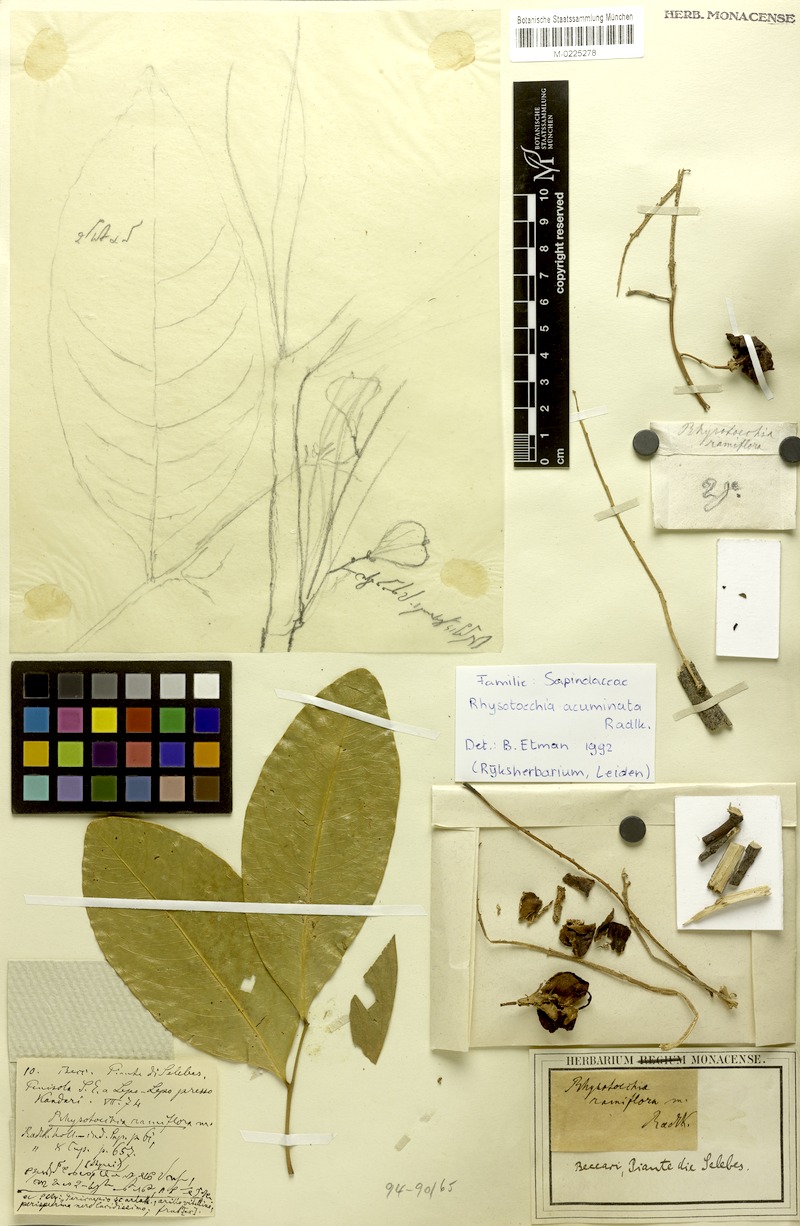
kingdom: Plantae
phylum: Tracheophyta
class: Magnoliopsida
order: Sapindales
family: Sapindaceae
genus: Rhysotoechia
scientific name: Rhysotoechia ramiflora
